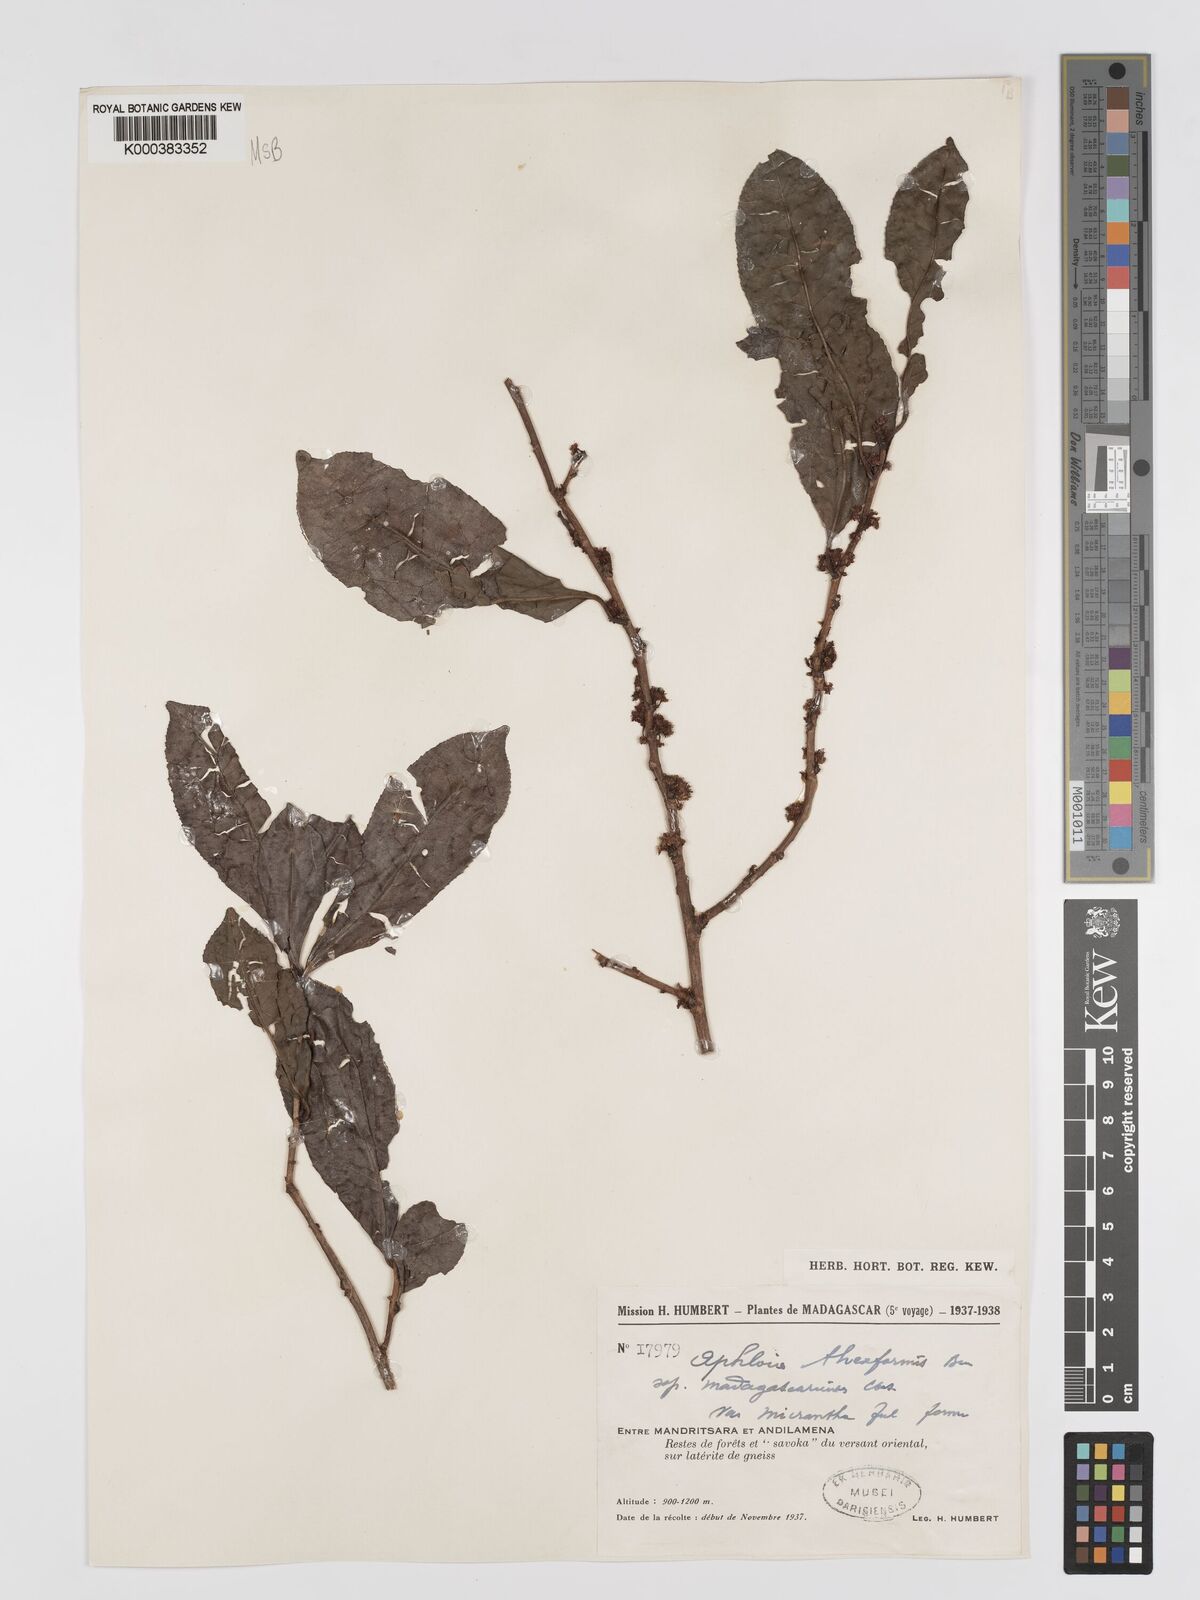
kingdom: Plantae
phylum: Tracheophyta
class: Magnoliopsida
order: Crossosomatales
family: Aphloiaceae
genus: Aphloia
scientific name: Aphloia theiformis
